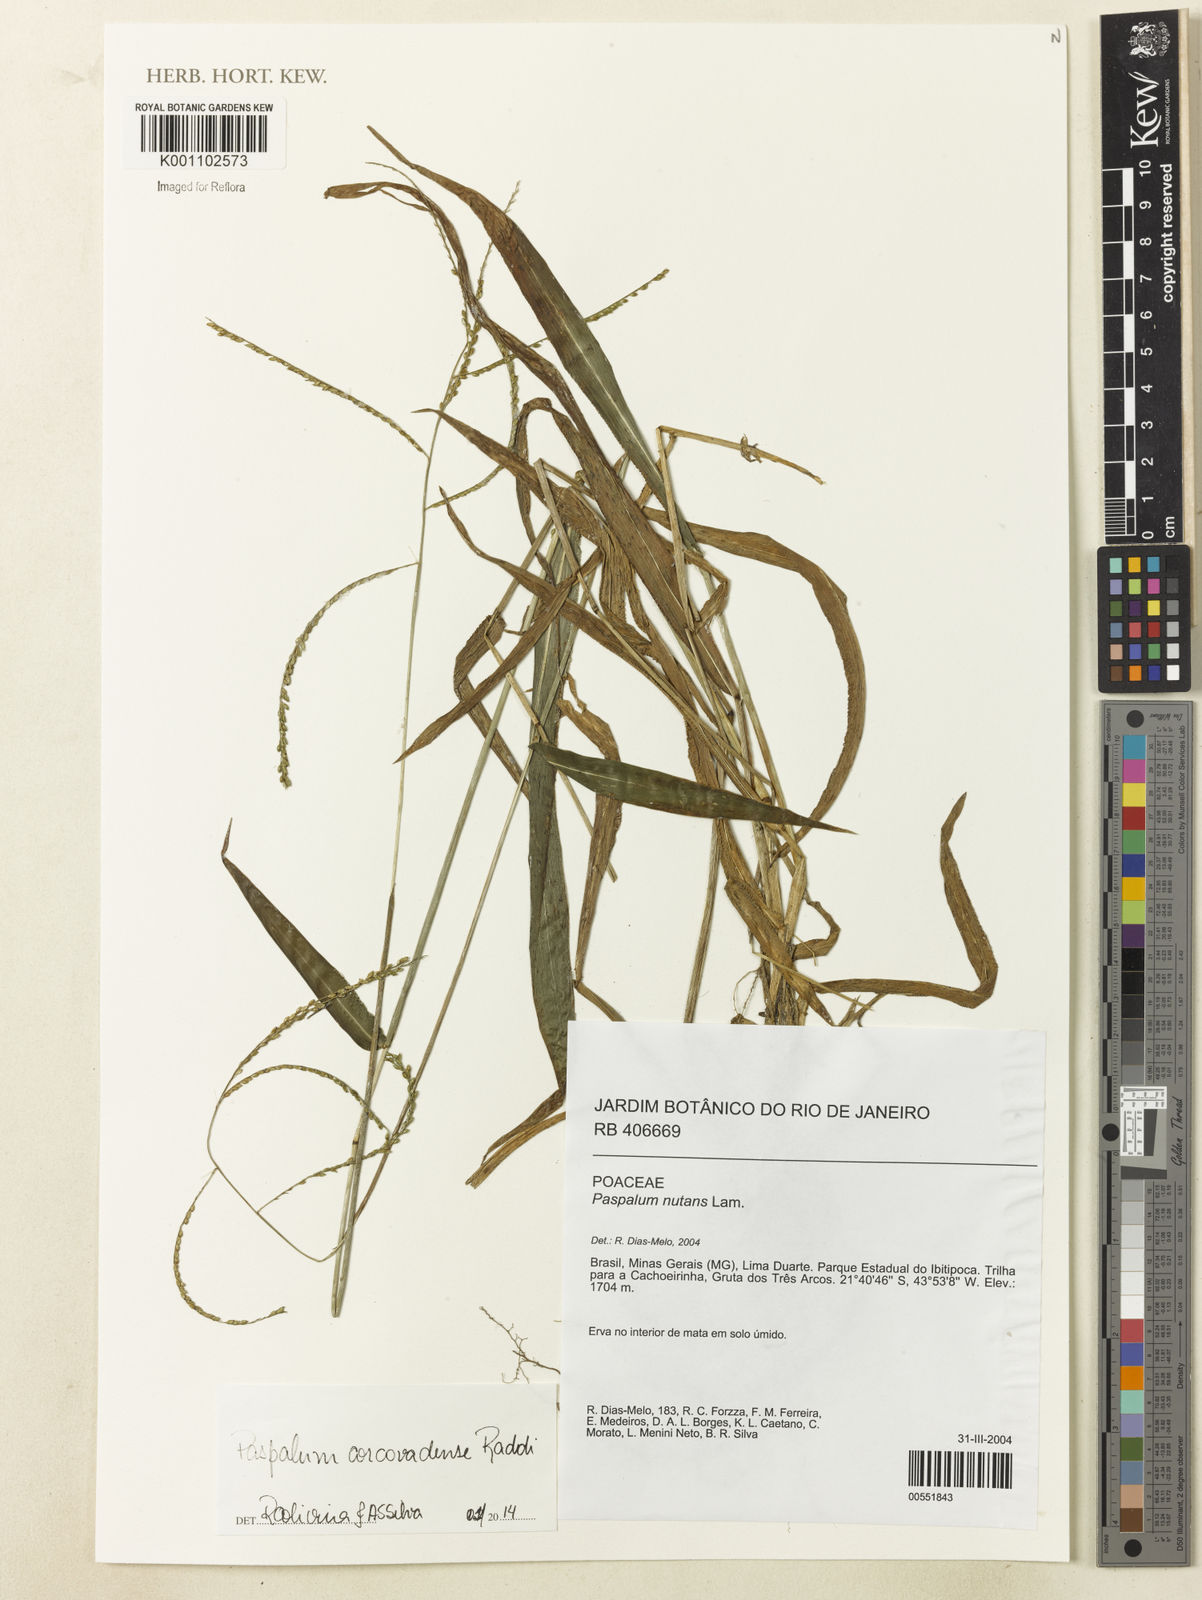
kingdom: Plantae
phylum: Tracheophyta
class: Liliopsida
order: Poales
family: Poaceae
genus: Paspalum
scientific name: Paspalum corcovadense
